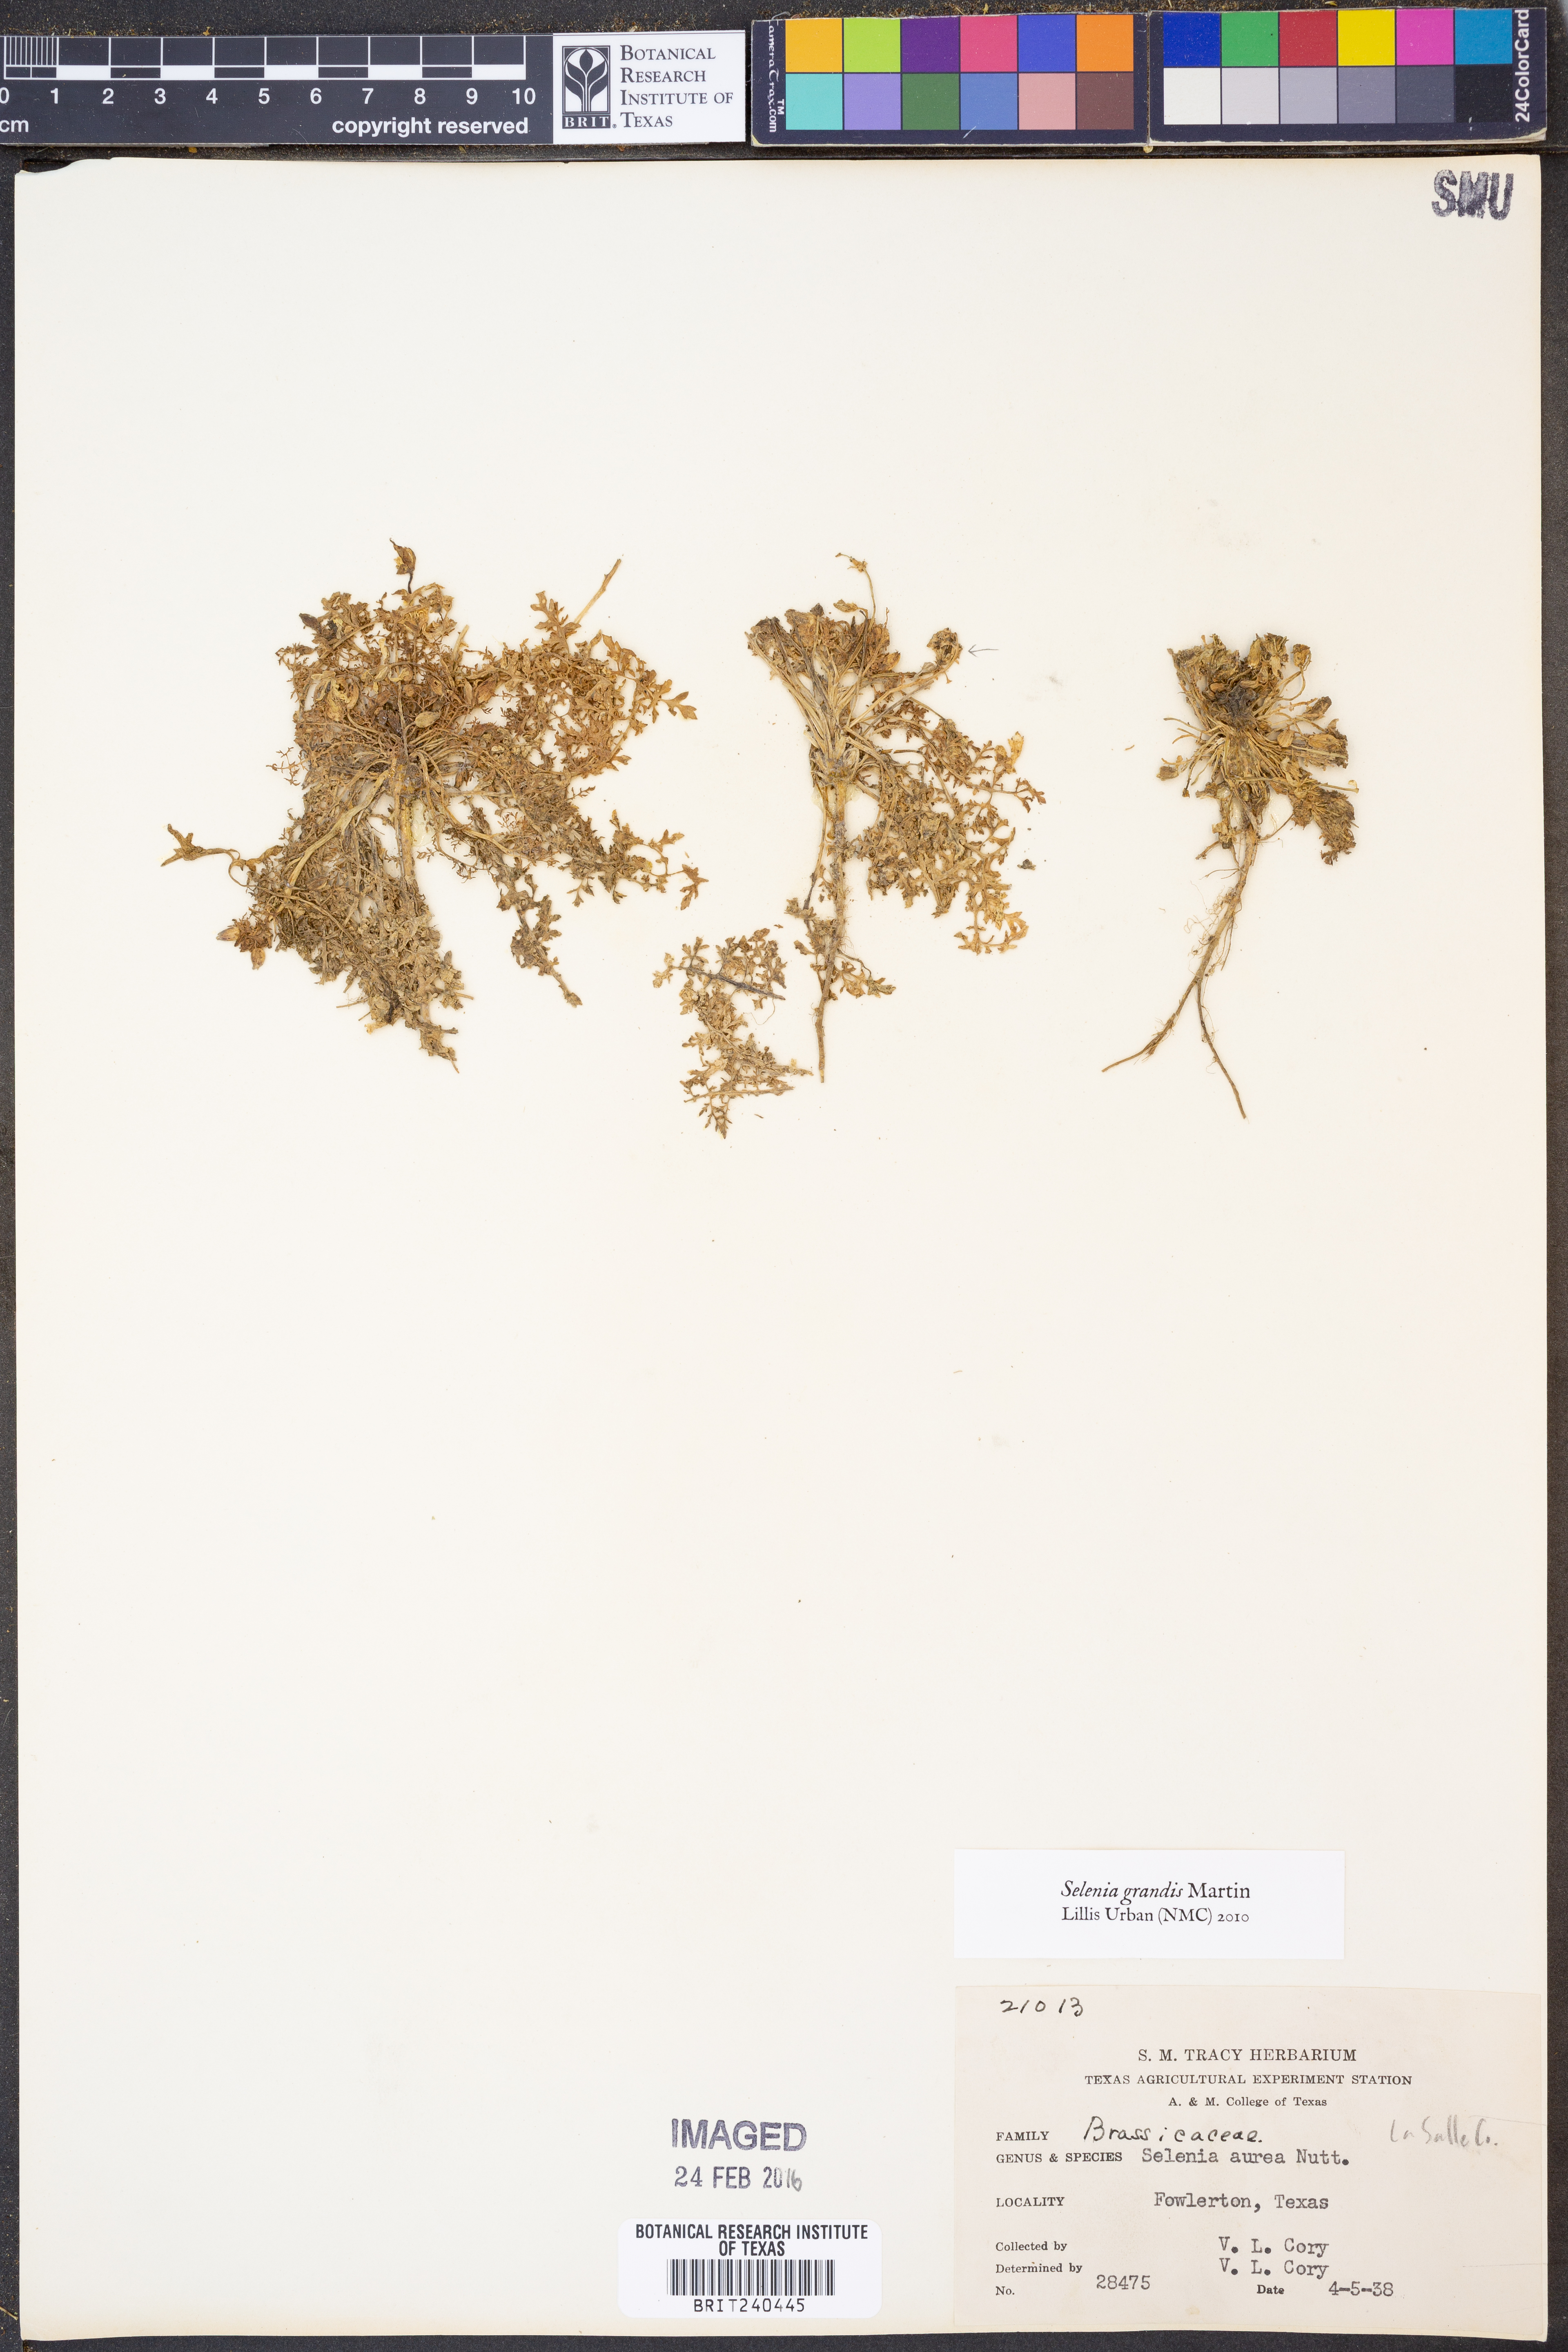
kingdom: Plantae
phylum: Tracheophyta
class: Magnoliopsida
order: Brassicales
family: Brassicaceae
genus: Selenia
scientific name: Selenia grandis
